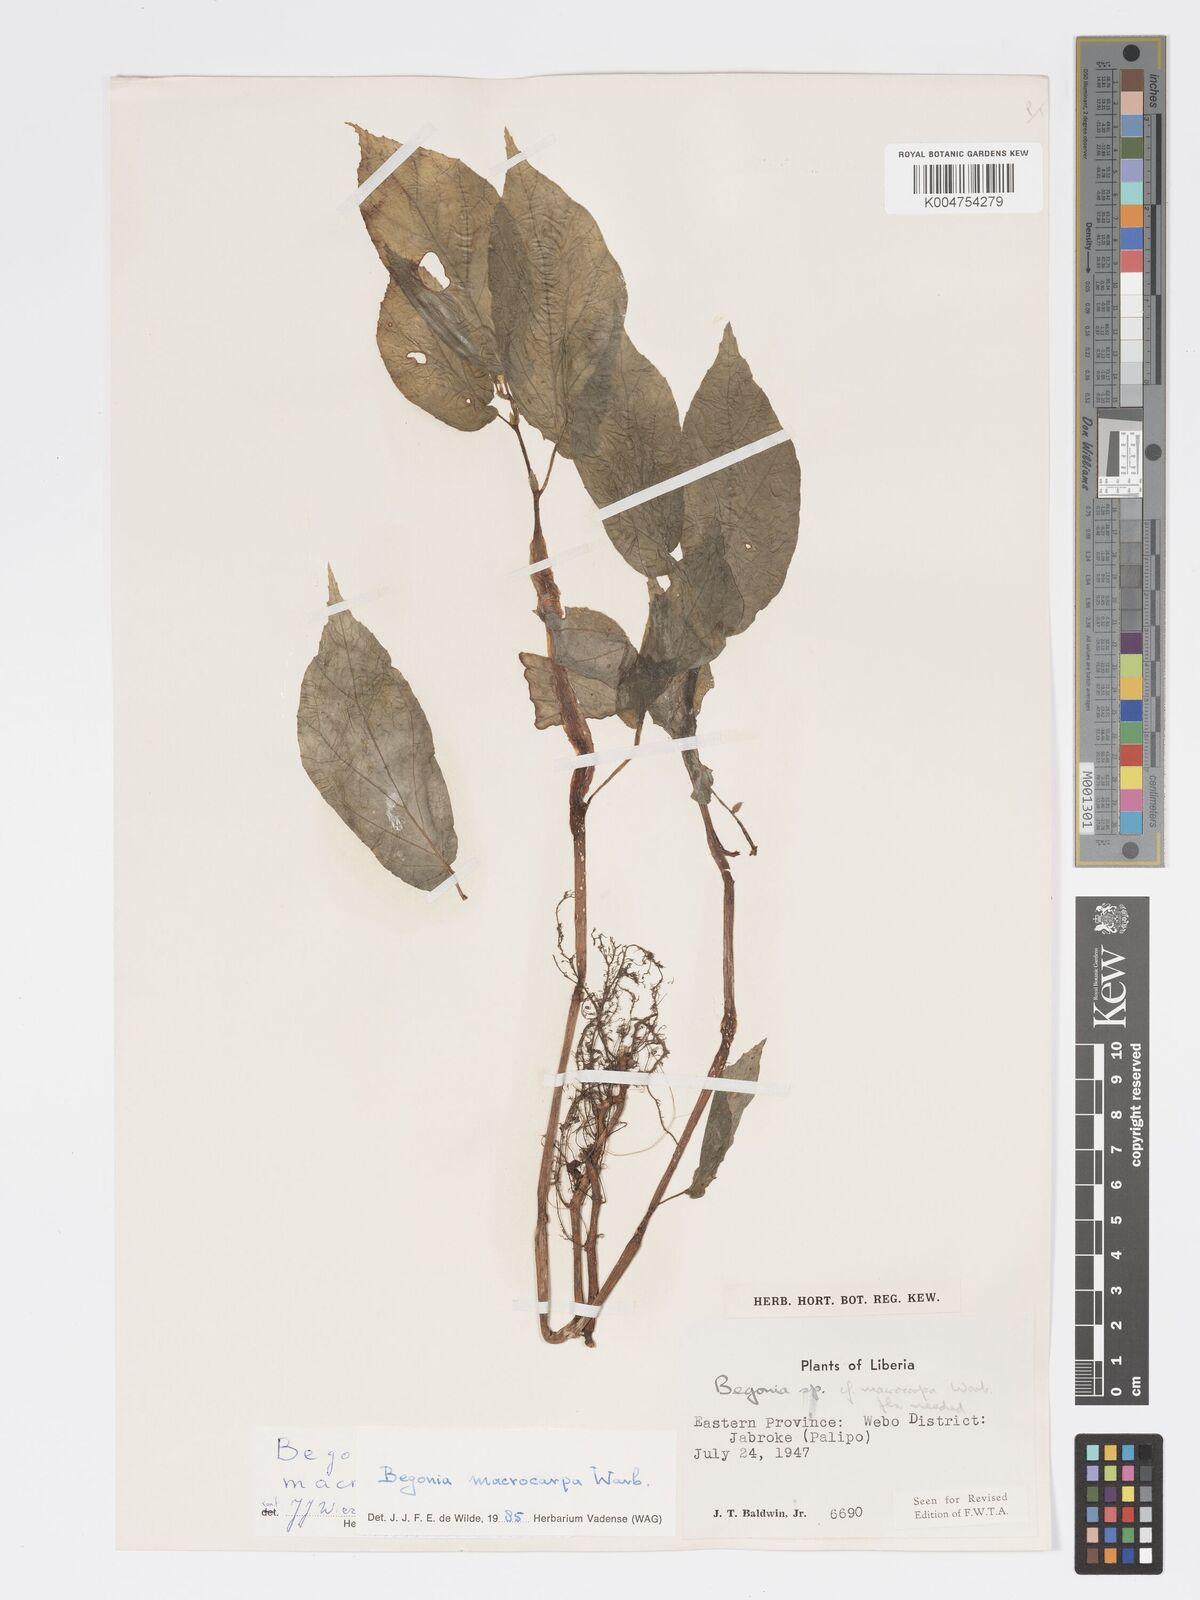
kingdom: Plantae
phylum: Tracheophyta
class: Magnoliopsida
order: Cucurbitales
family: Begoniaceae
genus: Begonia
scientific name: Begonia macrocarpa
